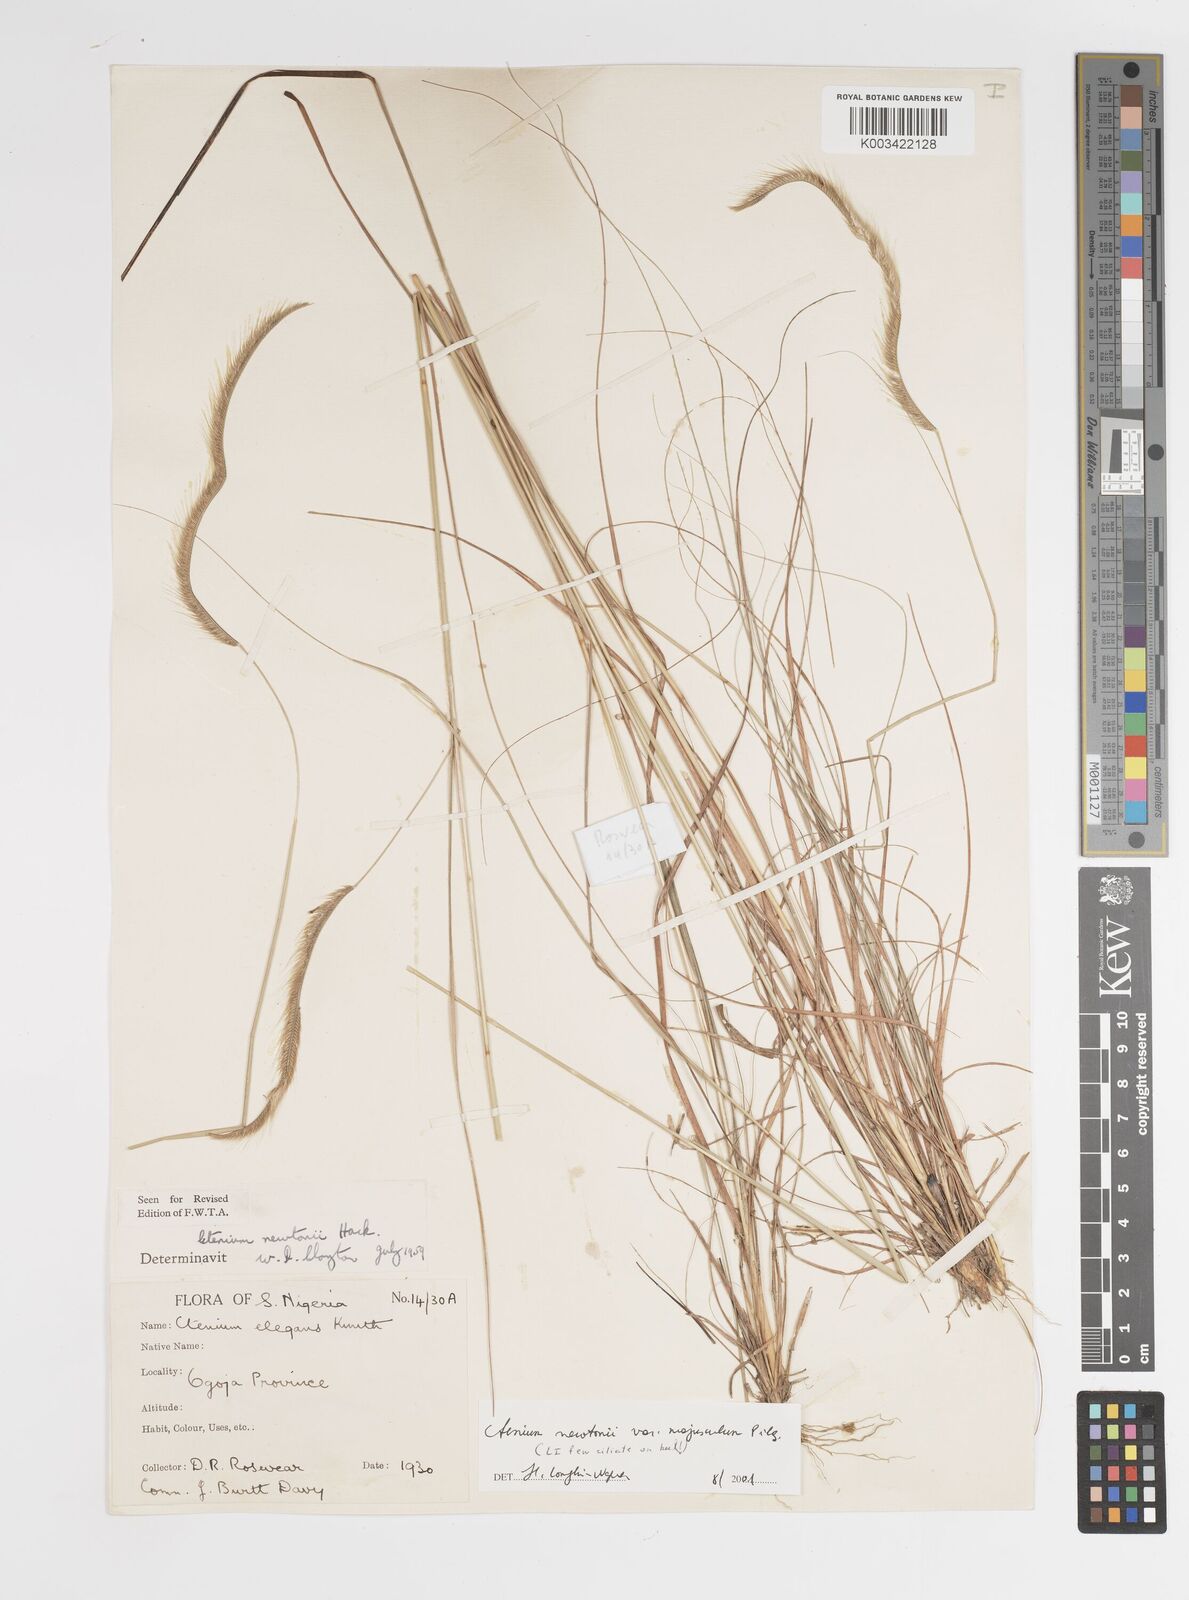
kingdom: Plantae
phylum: Tracheophyta
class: Liliopsida
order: Poales
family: Poaceae
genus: Ctenium
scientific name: Ctenium newtonii
